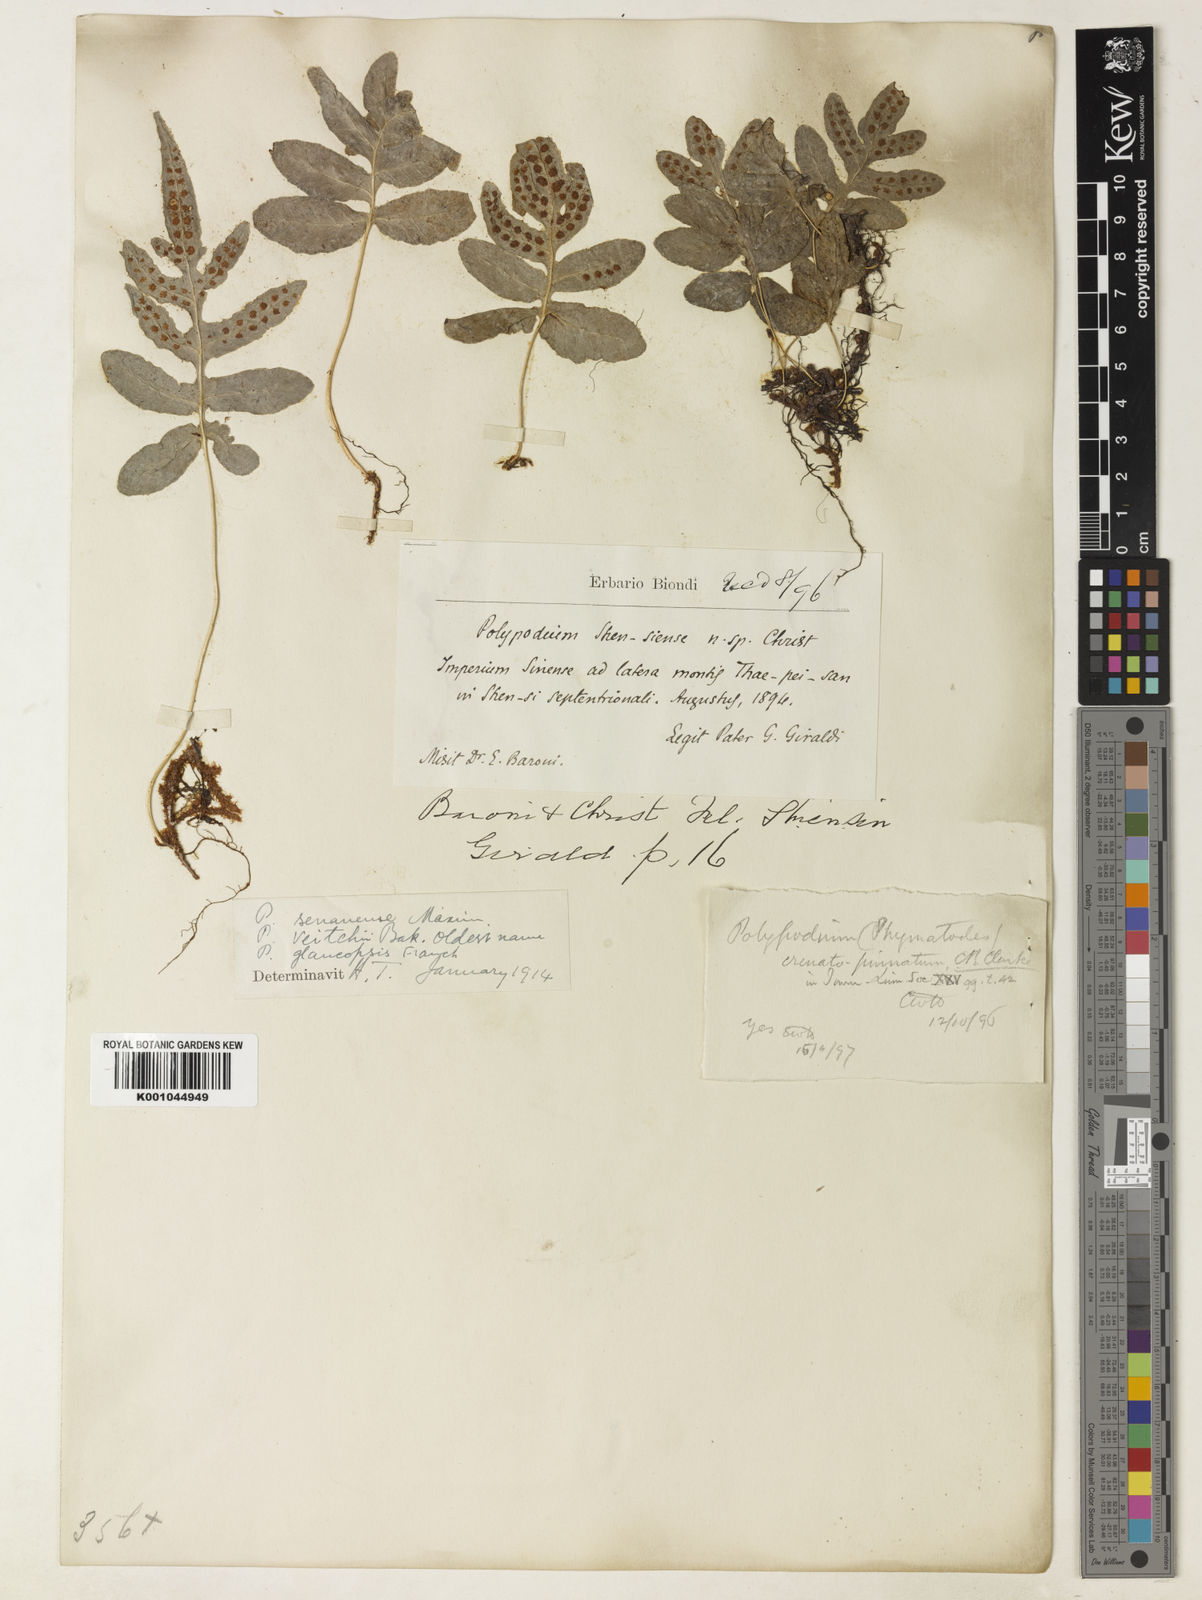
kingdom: Plantae
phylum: Tracheophyta
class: Polypodiopsida
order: Polypodiales
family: Polypodiaceae
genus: Selliguea
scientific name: Selliguea senanensis
